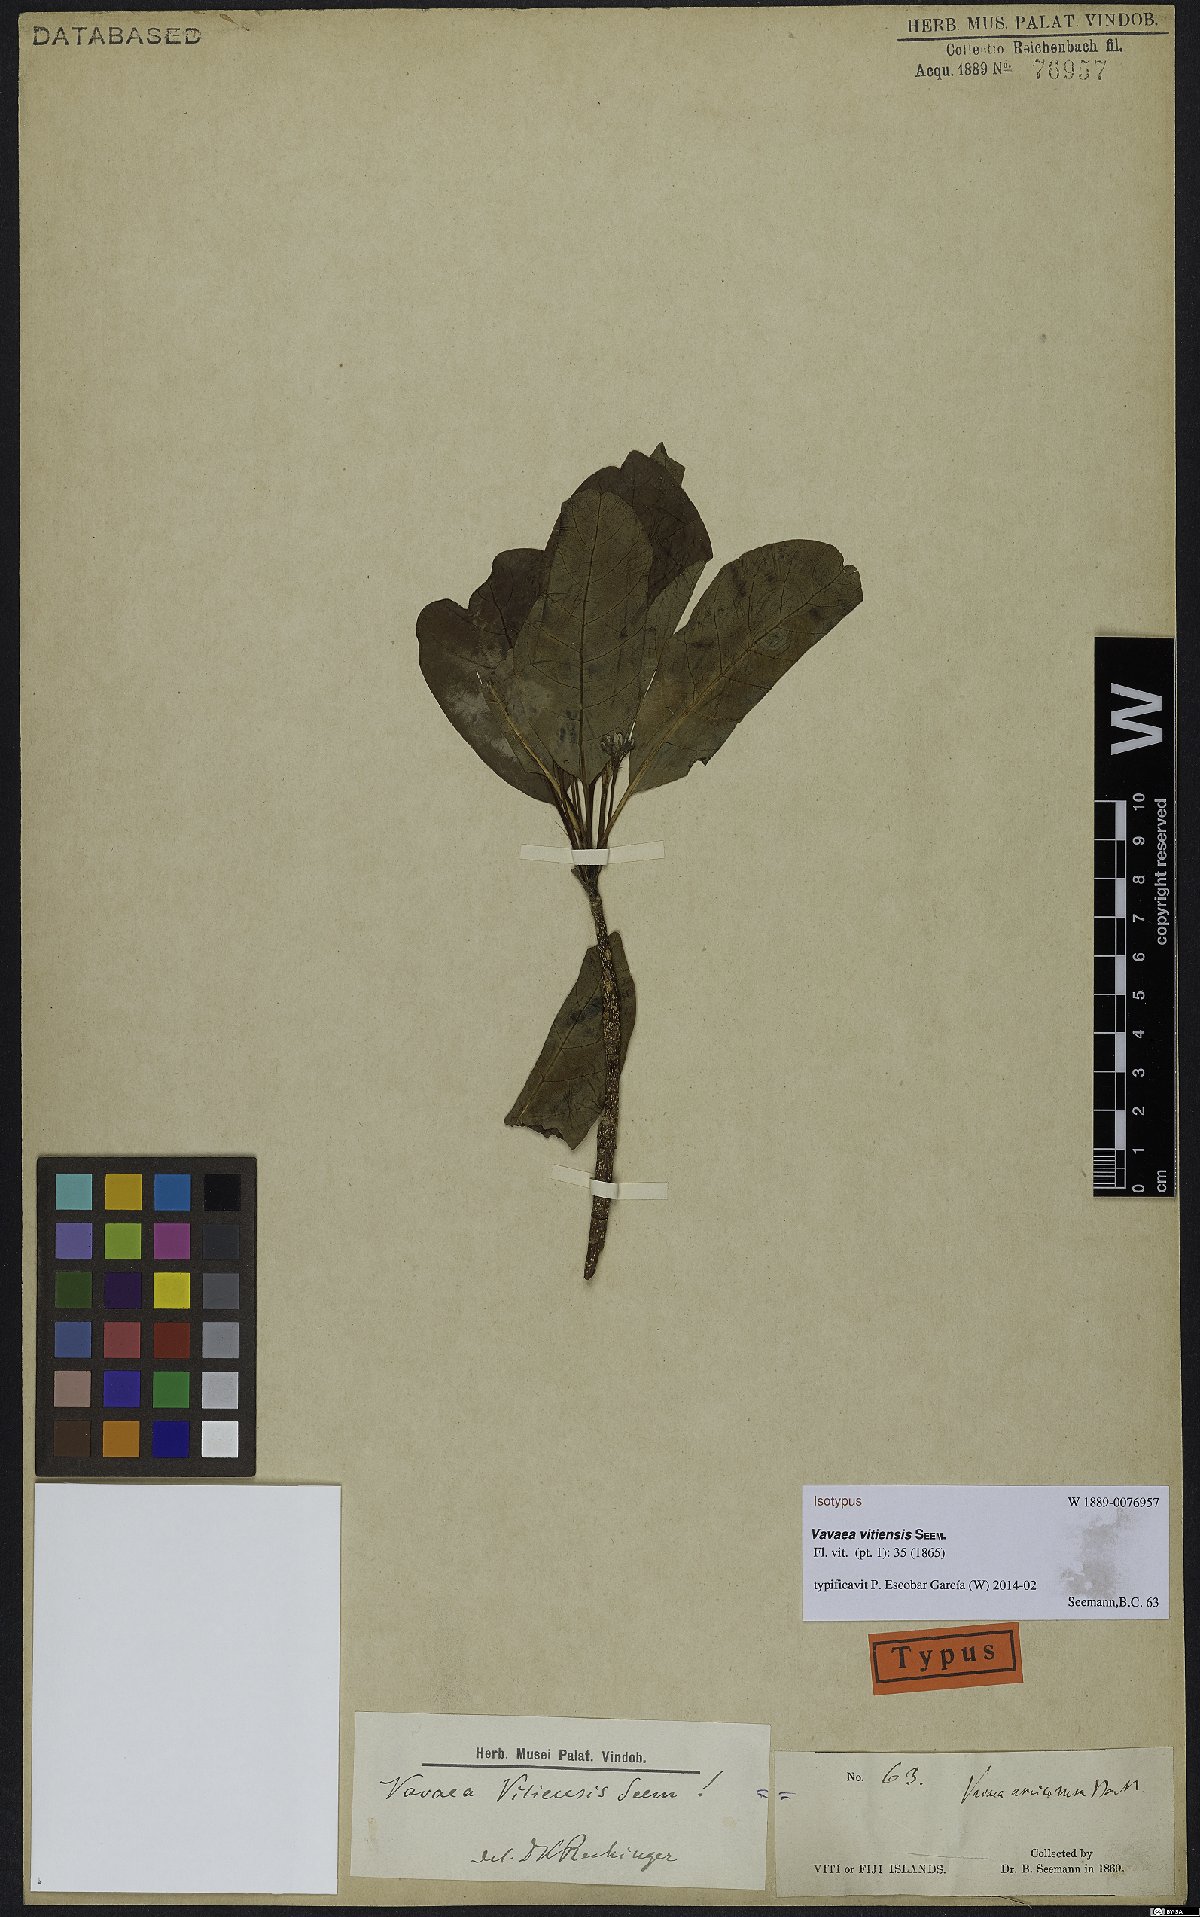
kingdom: Plantae
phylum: Tracheophyta
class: Magnoliopsida
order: Sapindales
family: Meliaceae
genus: Vavaea
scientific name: Vavaea amicorum
